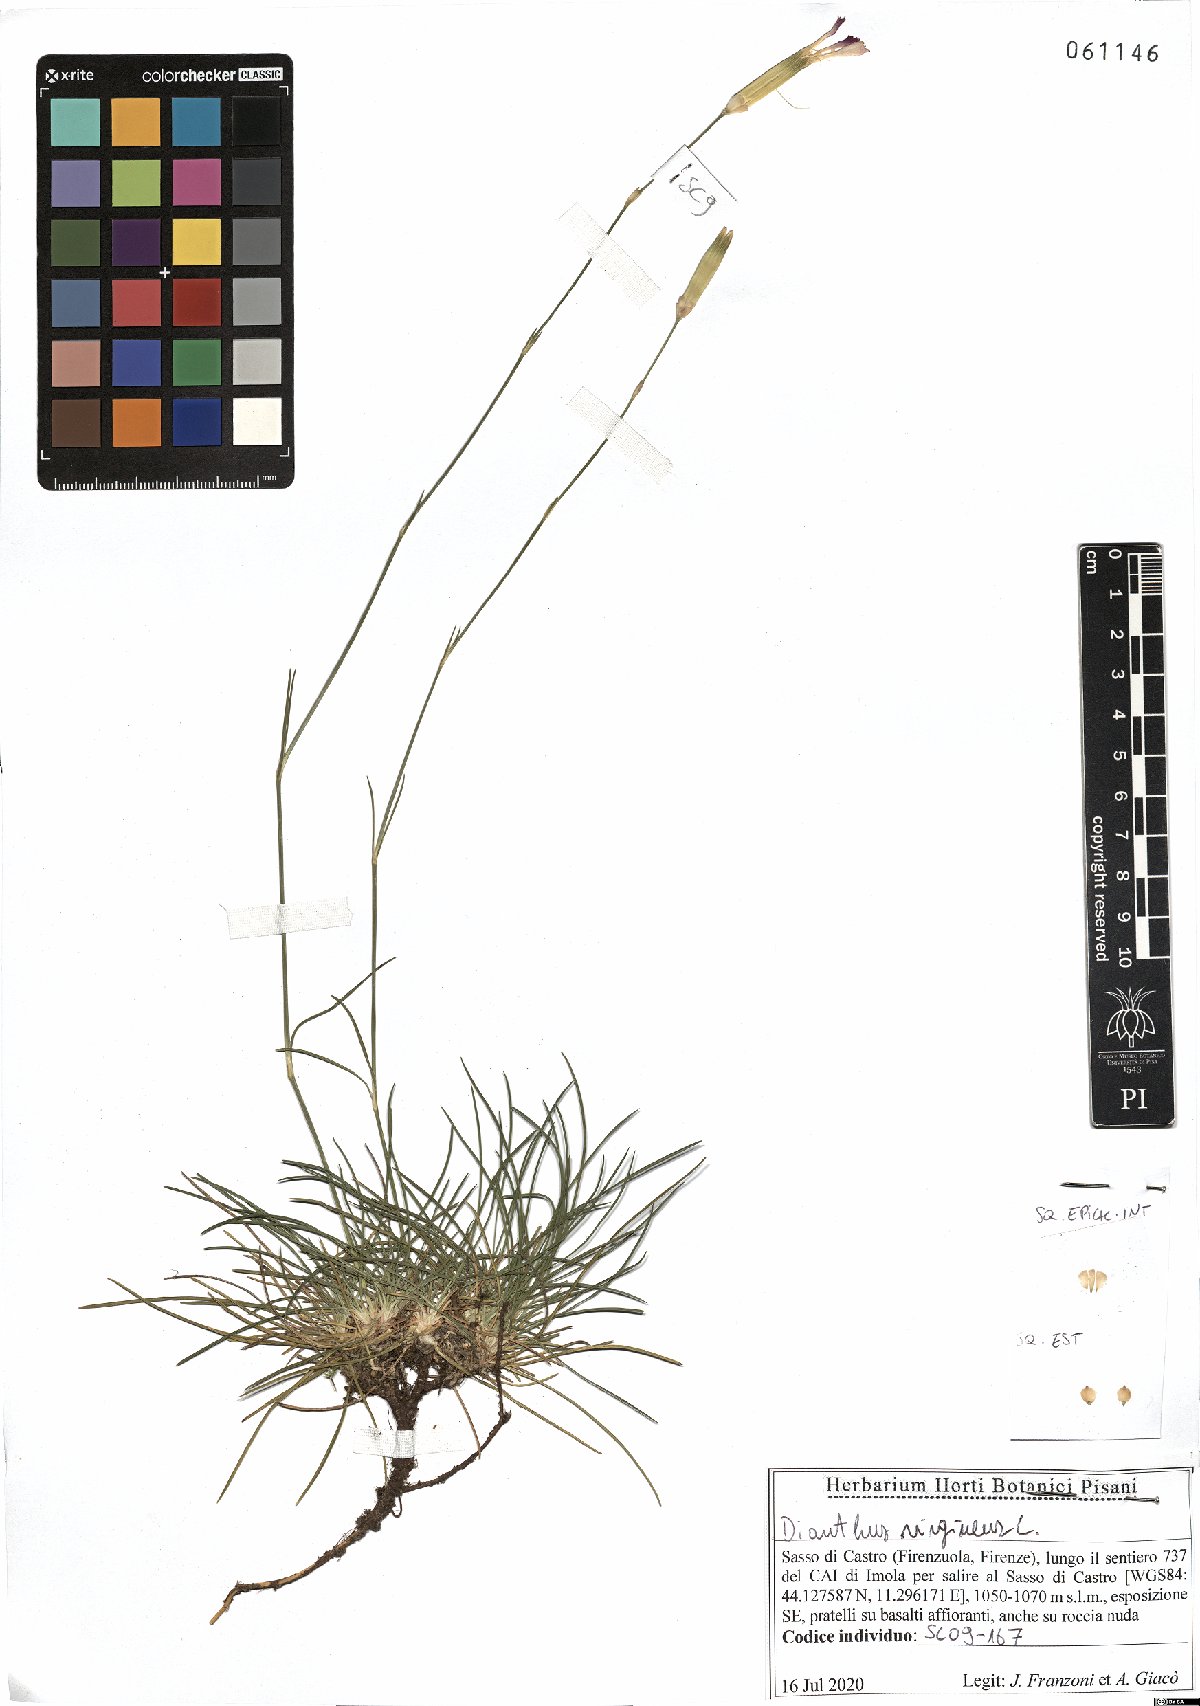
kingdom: Plantae
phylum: Tracheophyta
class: Magnoliopsida
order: Caryophyllales
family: Caryophyllaceae
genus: Dianthus
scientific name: Dianthus virgineus
